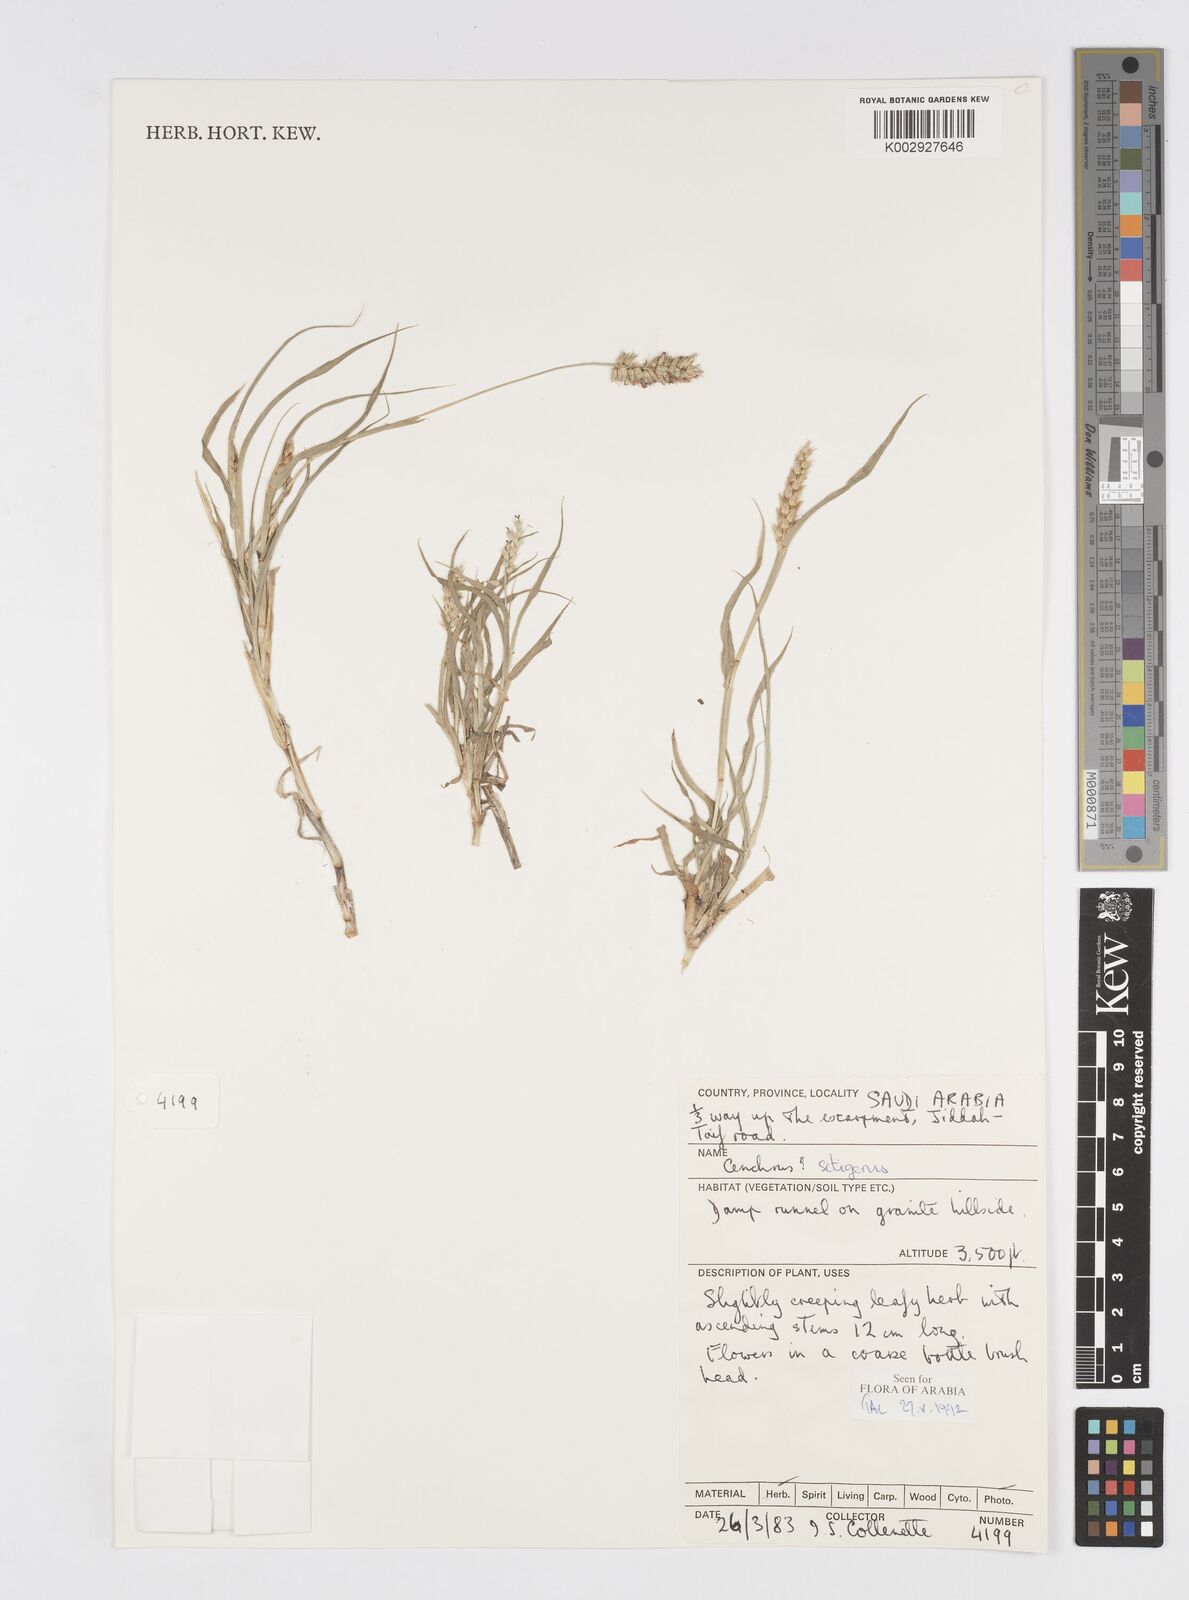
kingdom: Plantae
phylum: Tracheophyta
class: Liliopsida
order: Poales
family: Poaceae
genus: Cenchrus
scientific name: Cenchrus setigerus
